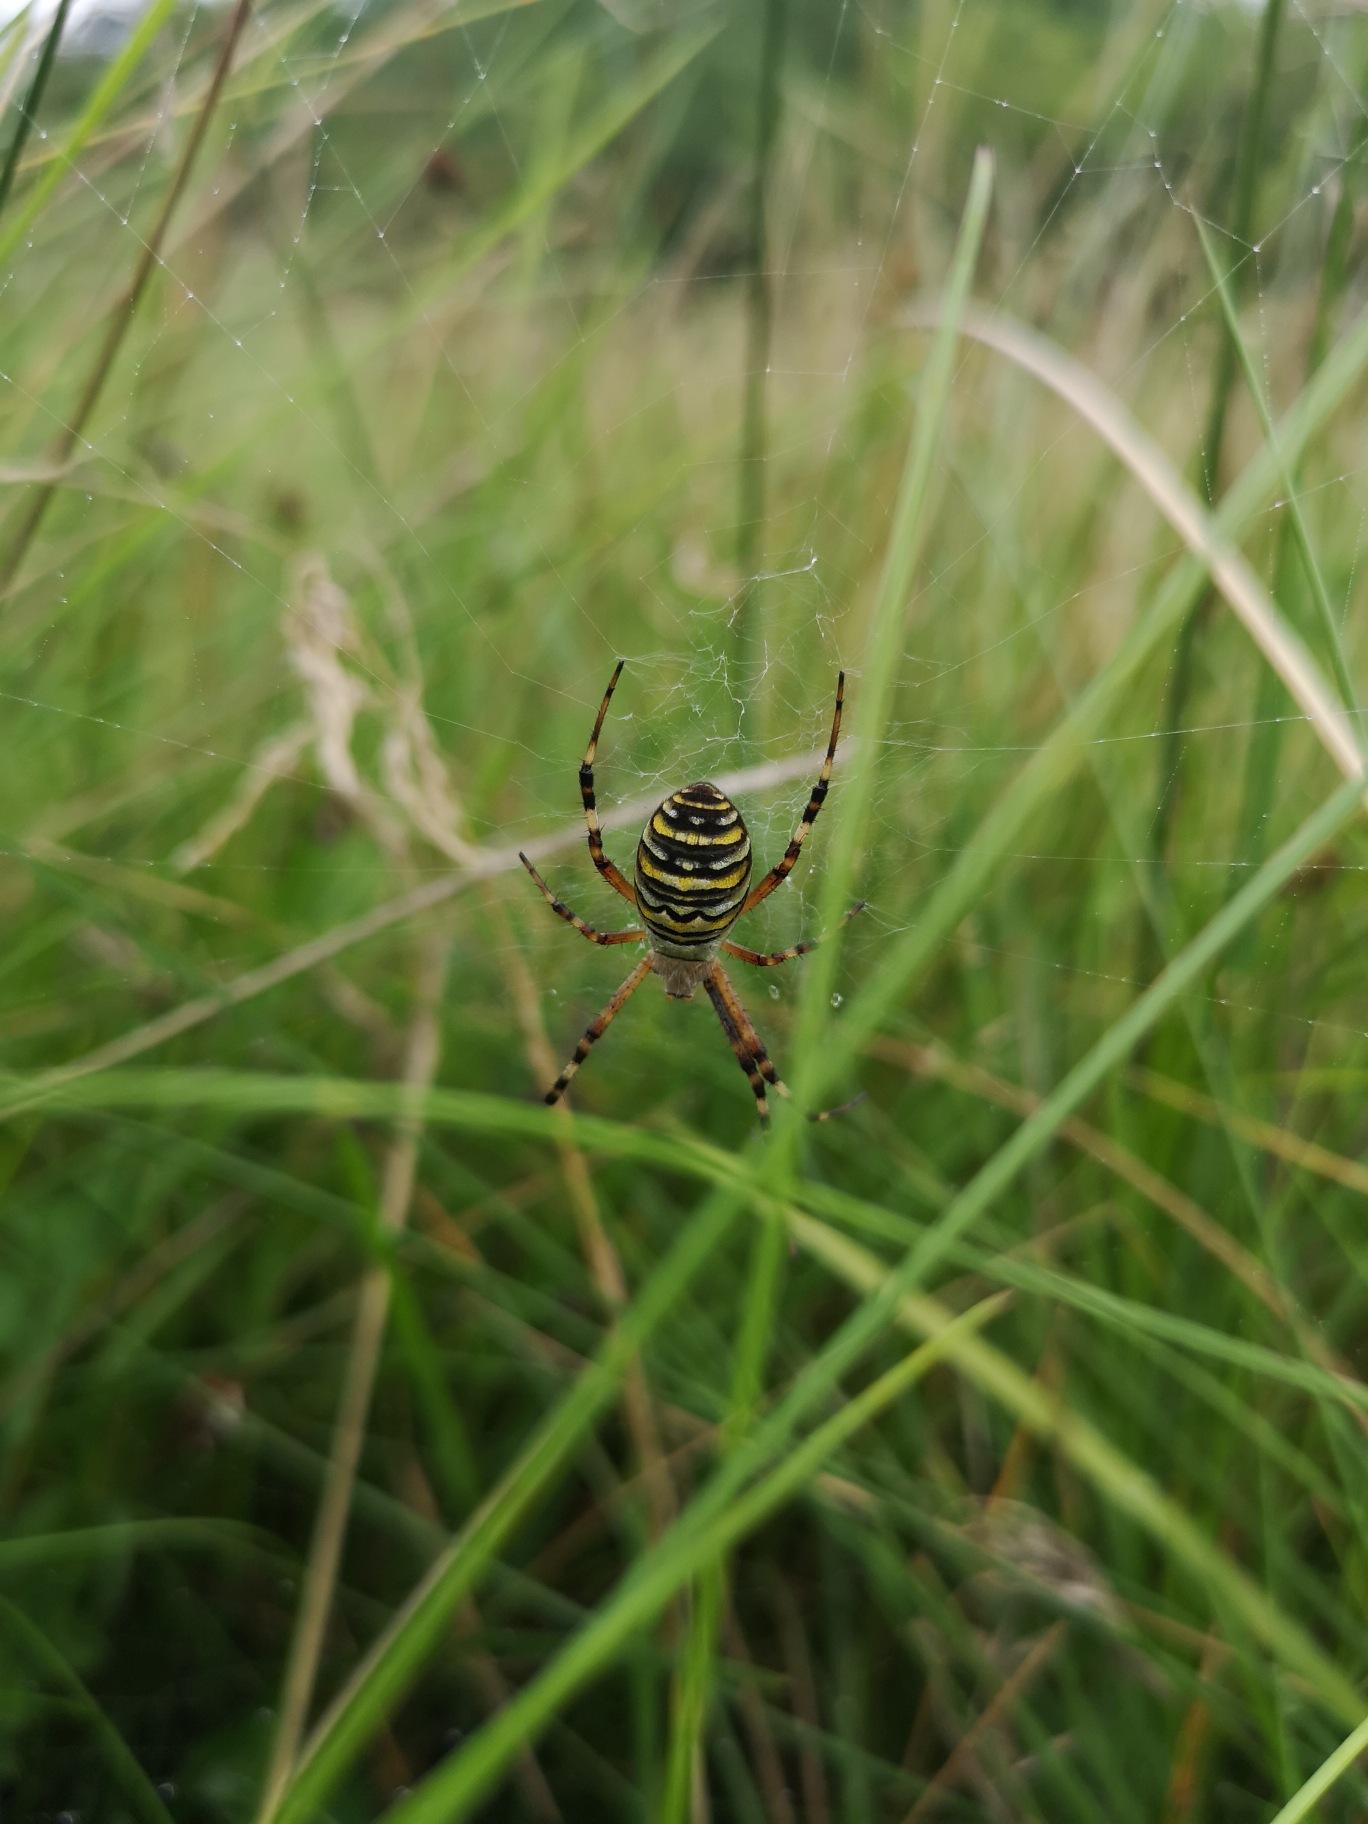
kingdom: Animalia
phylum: Arthropoda
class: Arachnida
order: Araneae
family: Araneidae
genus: Argiope
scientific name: Argiope bruennichi
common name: Hvepseedderkop
